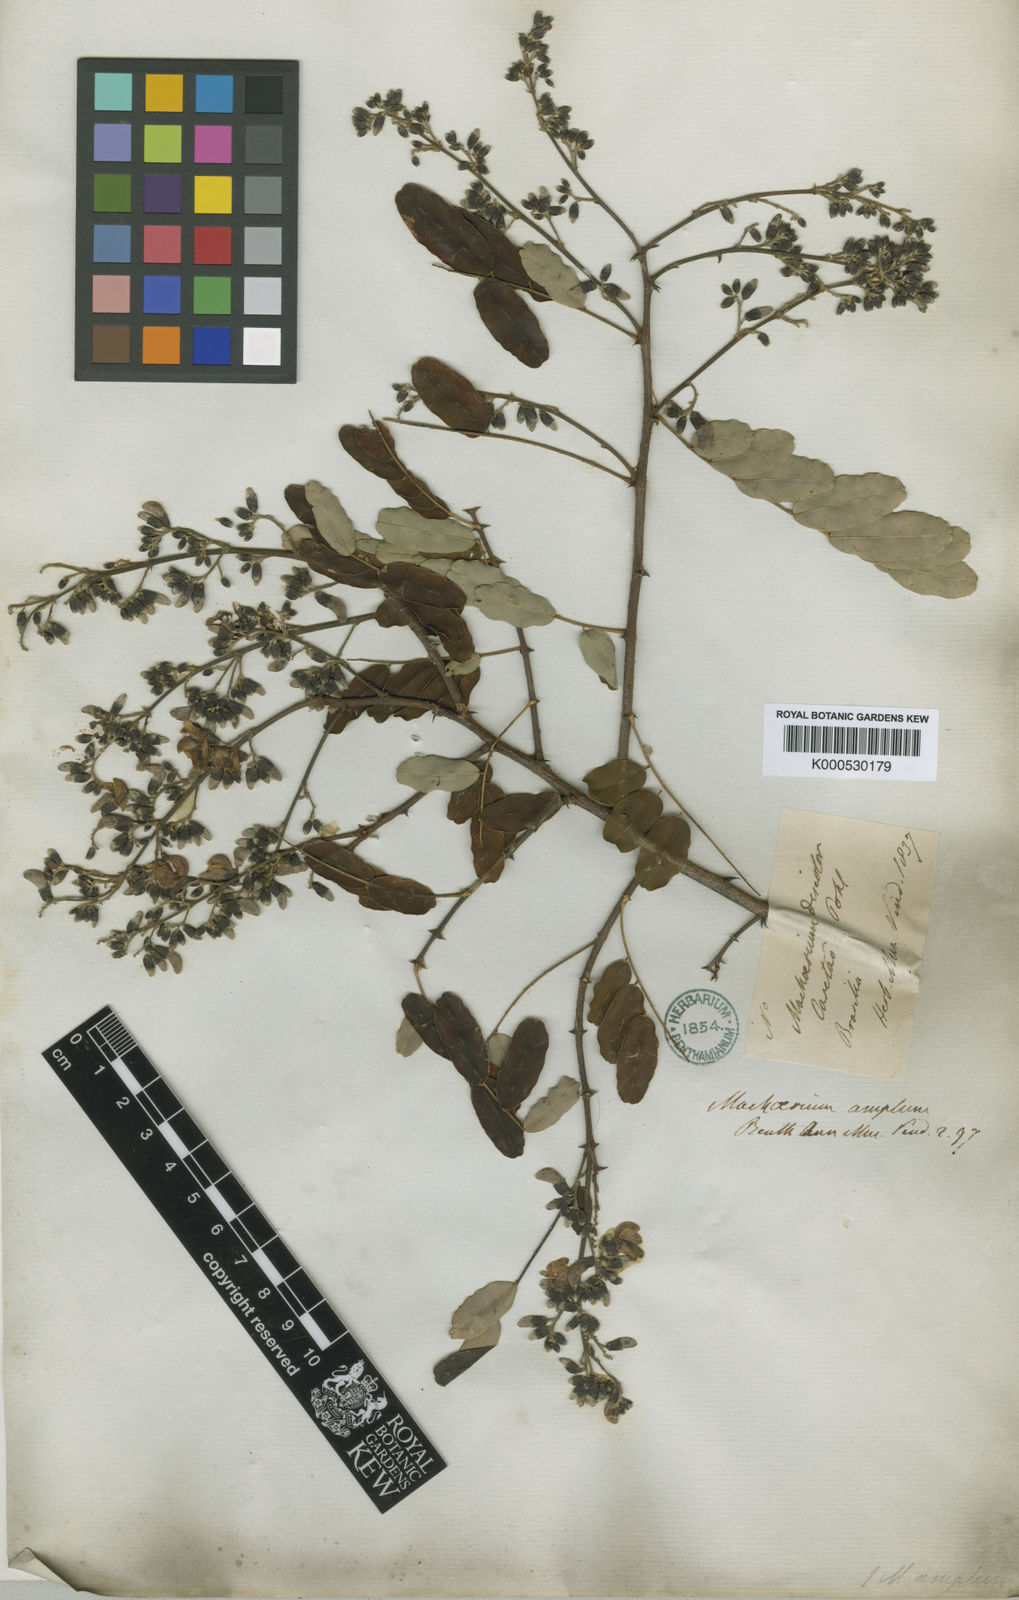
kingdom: Plantae
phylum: Tracheophyta
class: Magnoliopsida
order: Fabales
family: Fabaceae
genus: Machaerium
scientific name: Machaerium amplum
